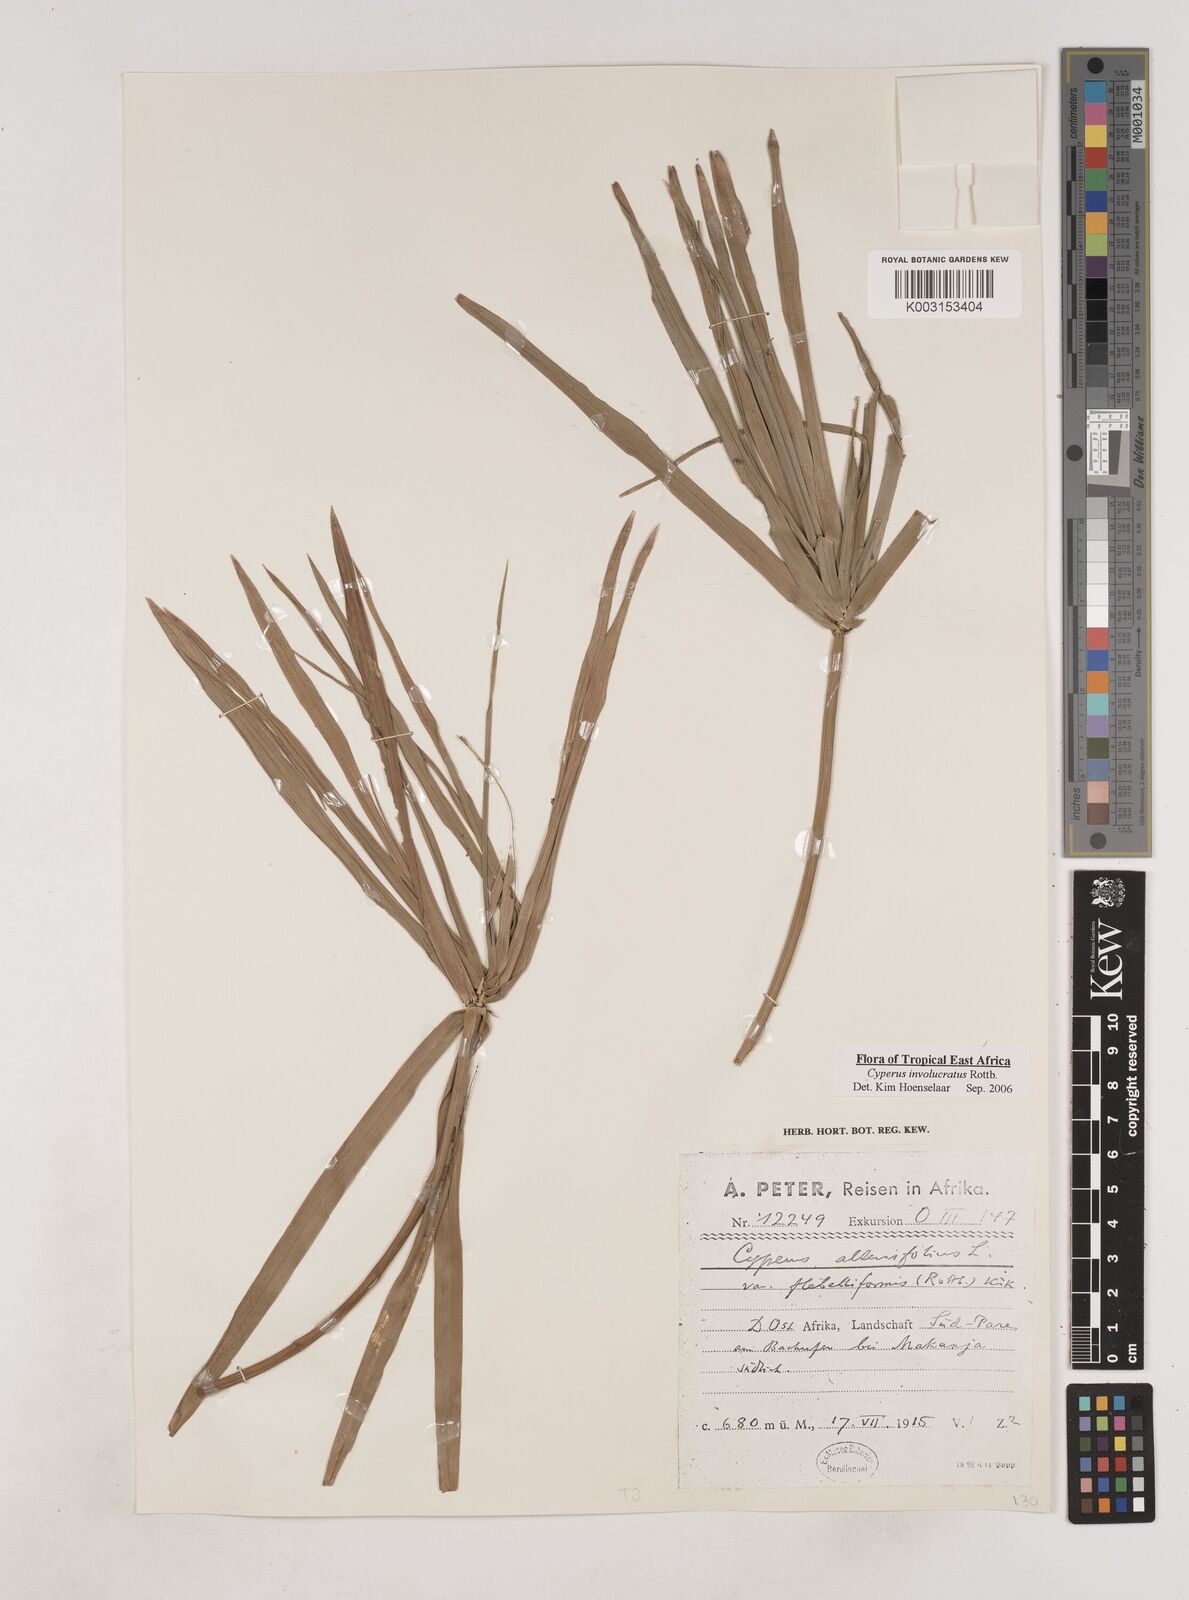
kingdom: Plantae
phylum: Tracheophyta
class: Liliopsida
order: Poales
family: Cyperaceae
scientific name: Cyperaceae
